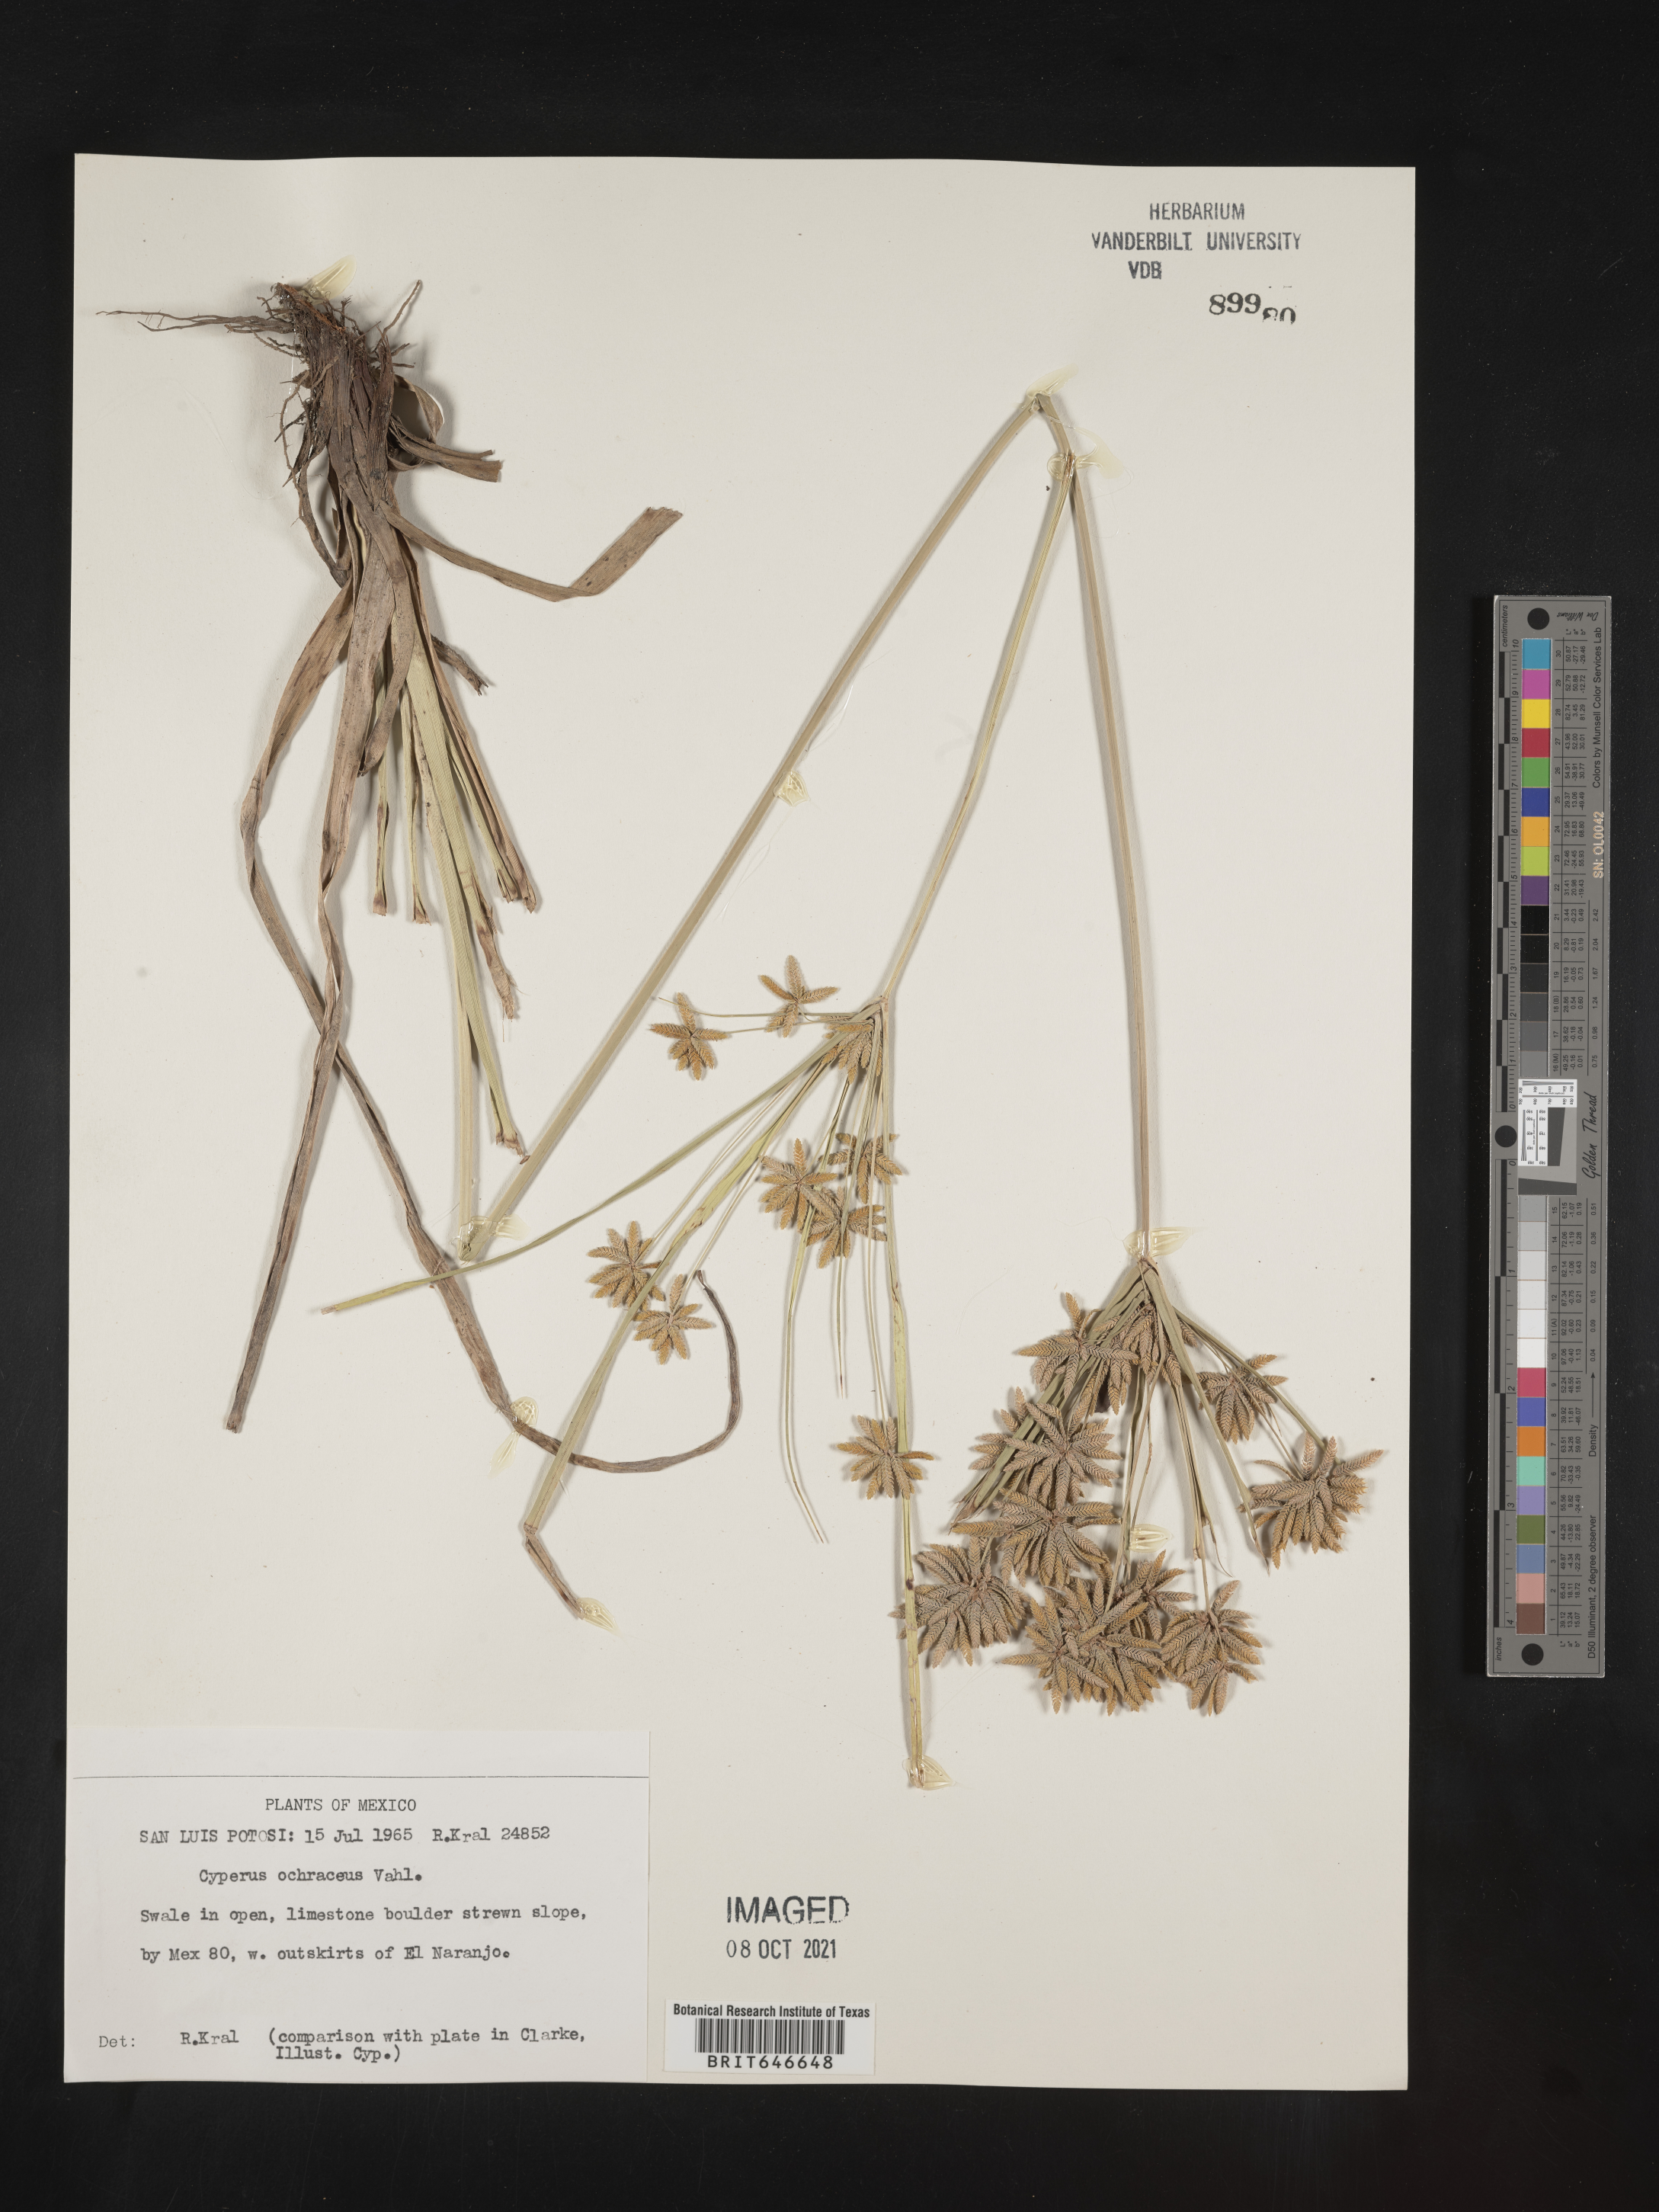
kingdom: Plantae
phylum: Tracheophyta
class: Liliopsida
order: Poales
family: Cyperaceae
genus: Cyperus
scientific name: Cyperus
